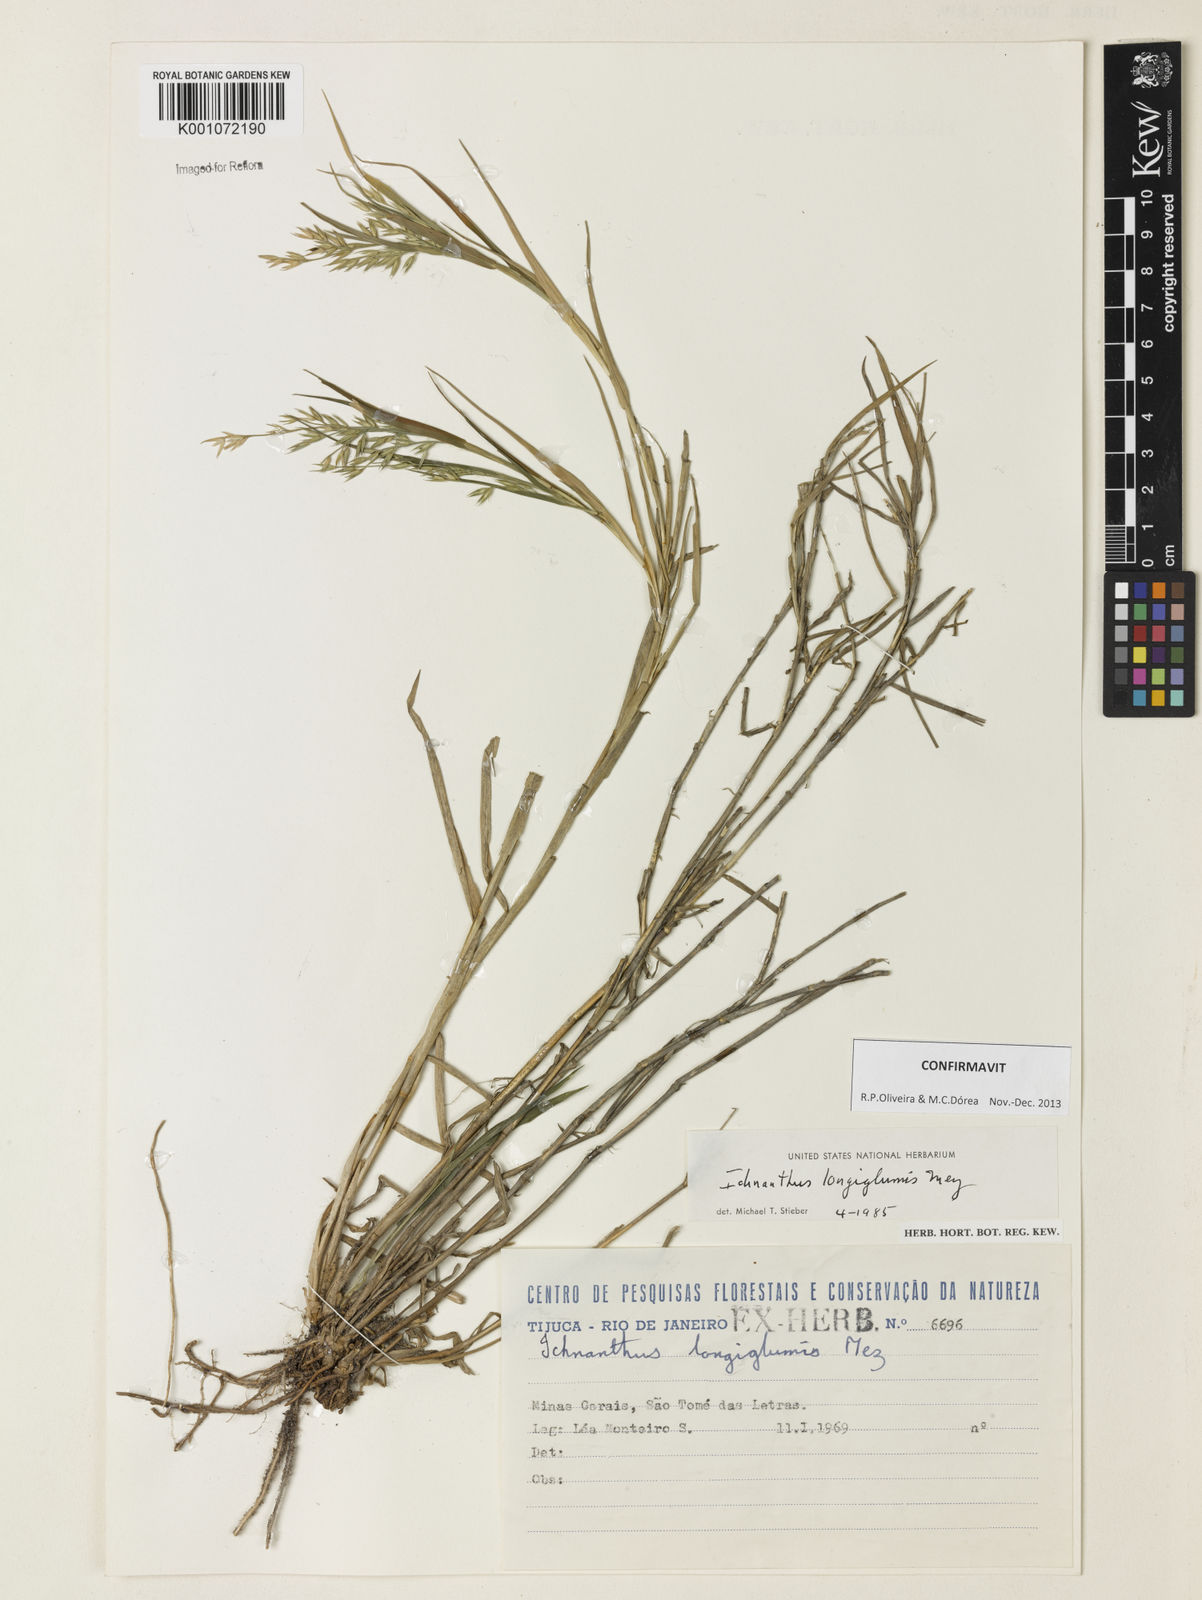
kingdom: Plantae
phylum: Tracheophyta
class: Liliopsida
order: Poales
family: Poaceae
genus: Ichnanthus
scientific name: Ichnanthus longiglumis
